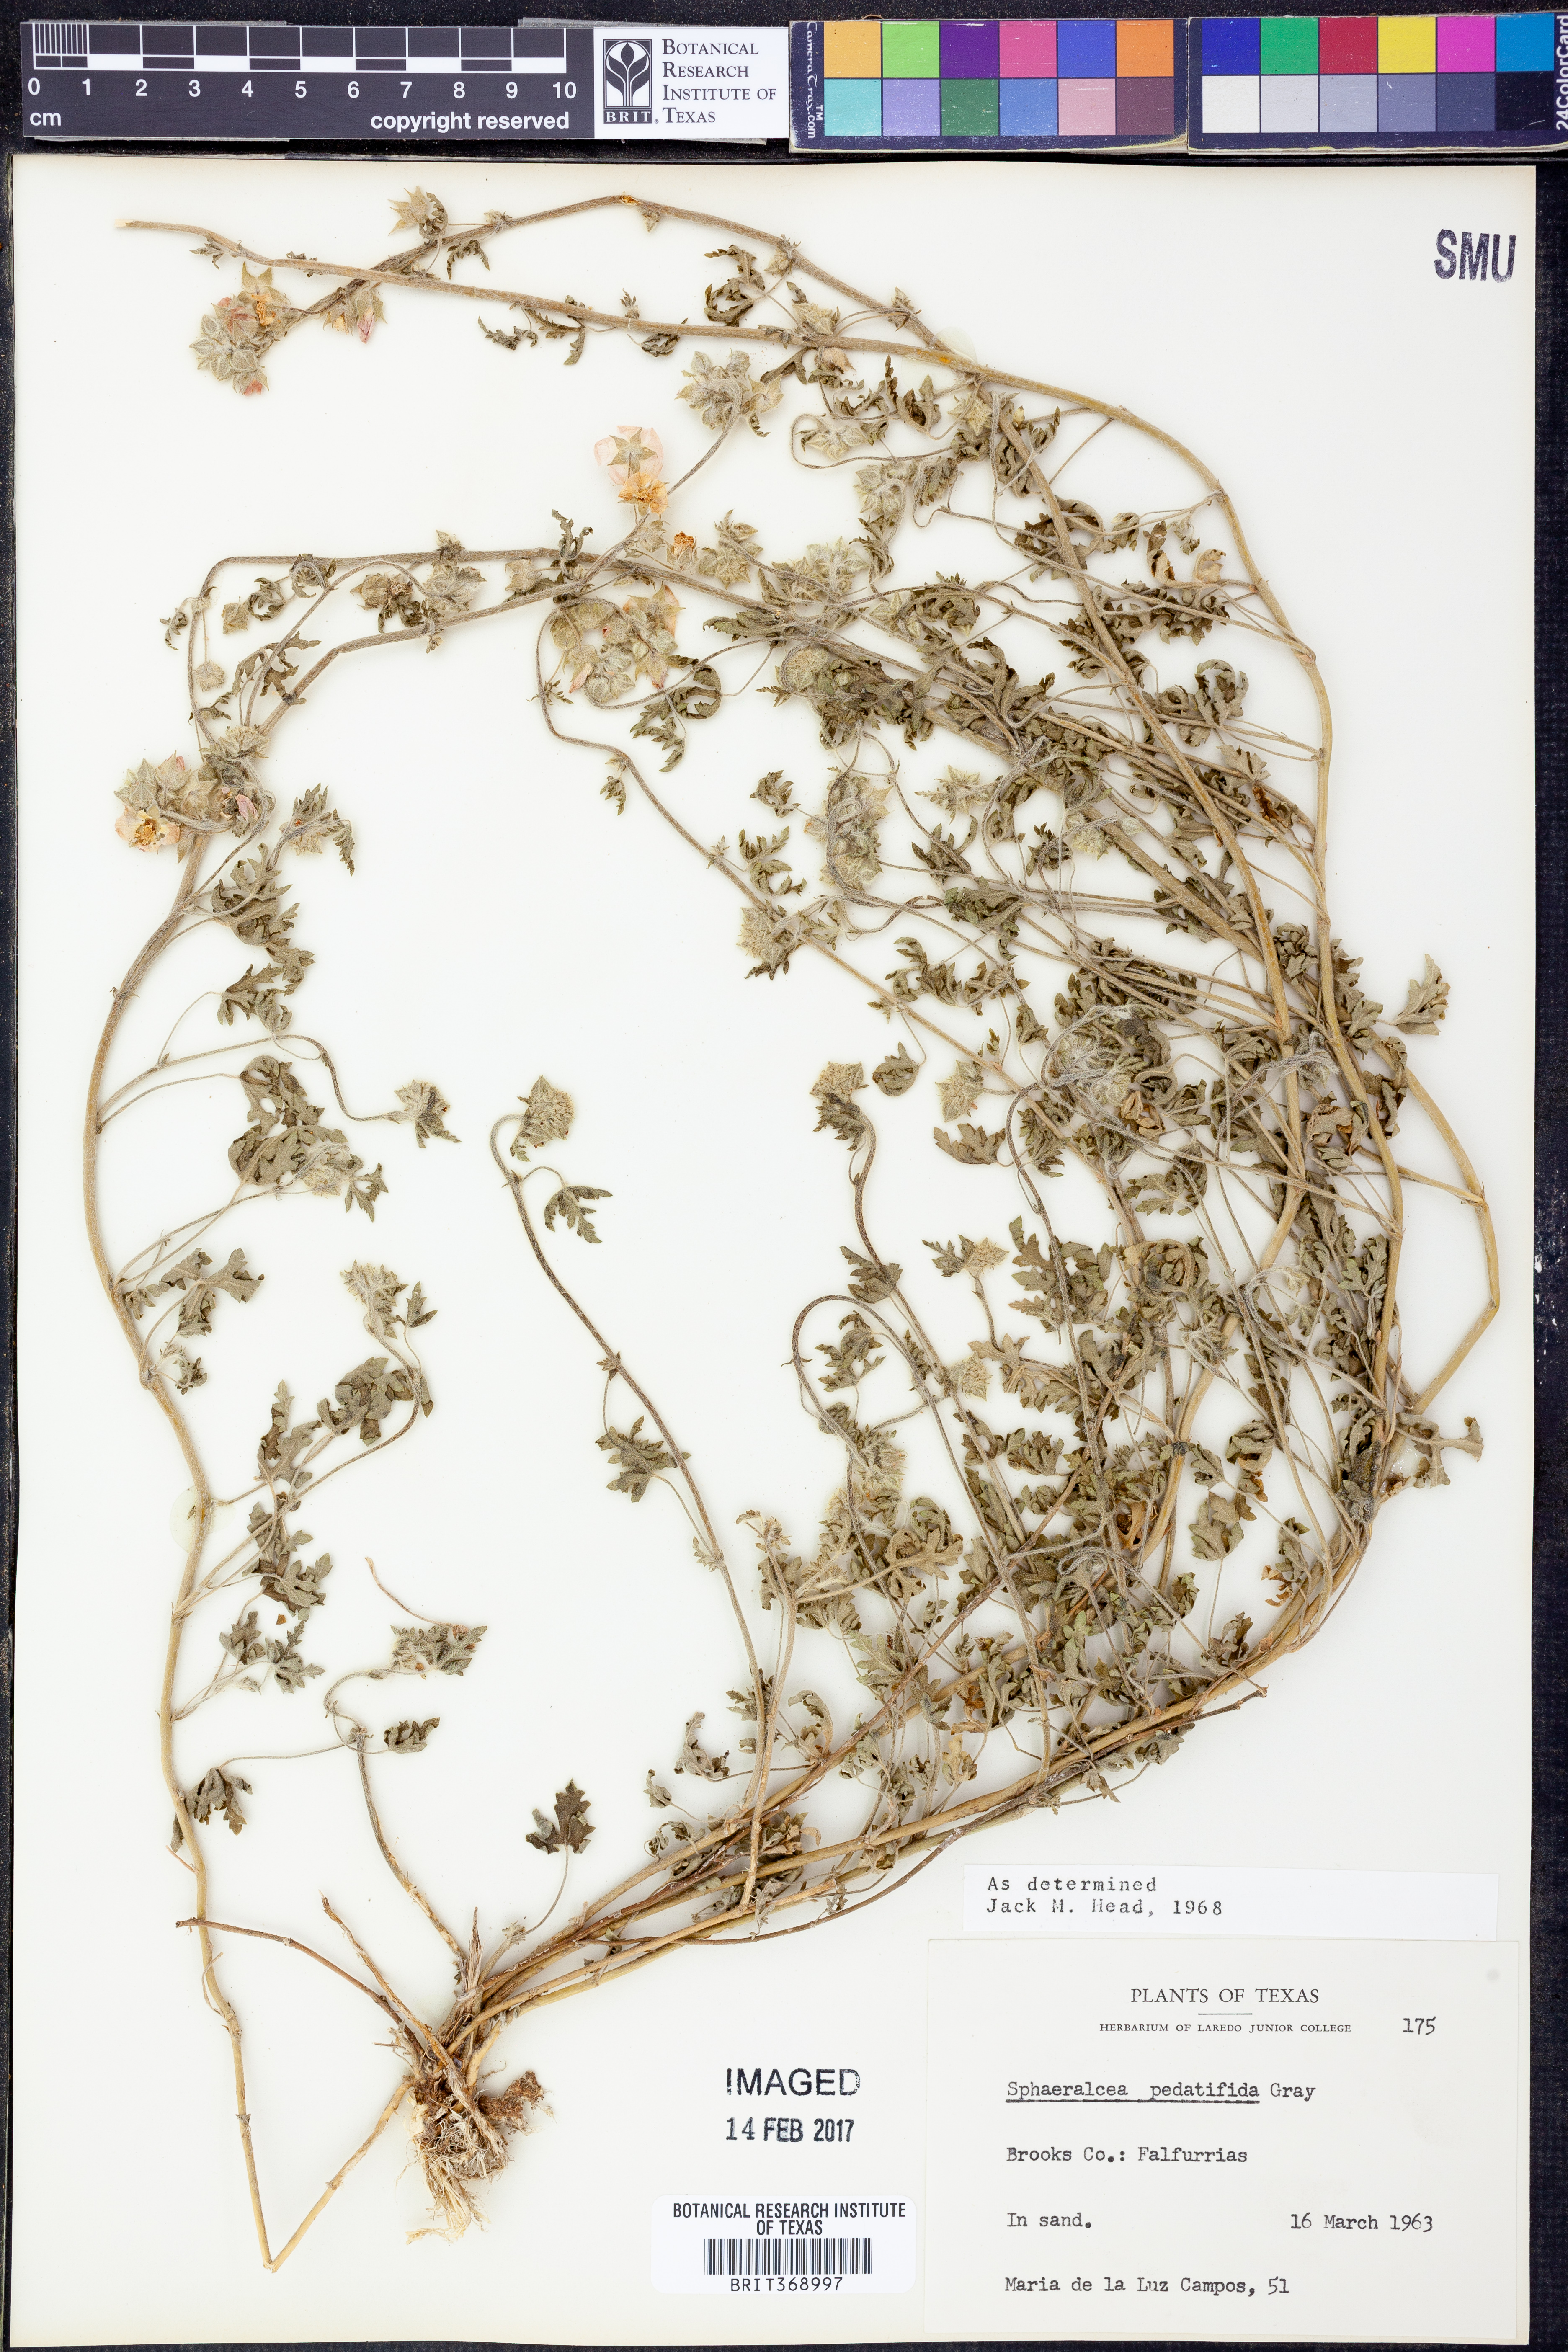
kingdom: Plantae
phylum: Tracheophyta
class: Magnoliopsida
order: Malvales
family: Malvaceae
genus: Sphaeralcea
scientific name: Sphaeralcea pedatifida
